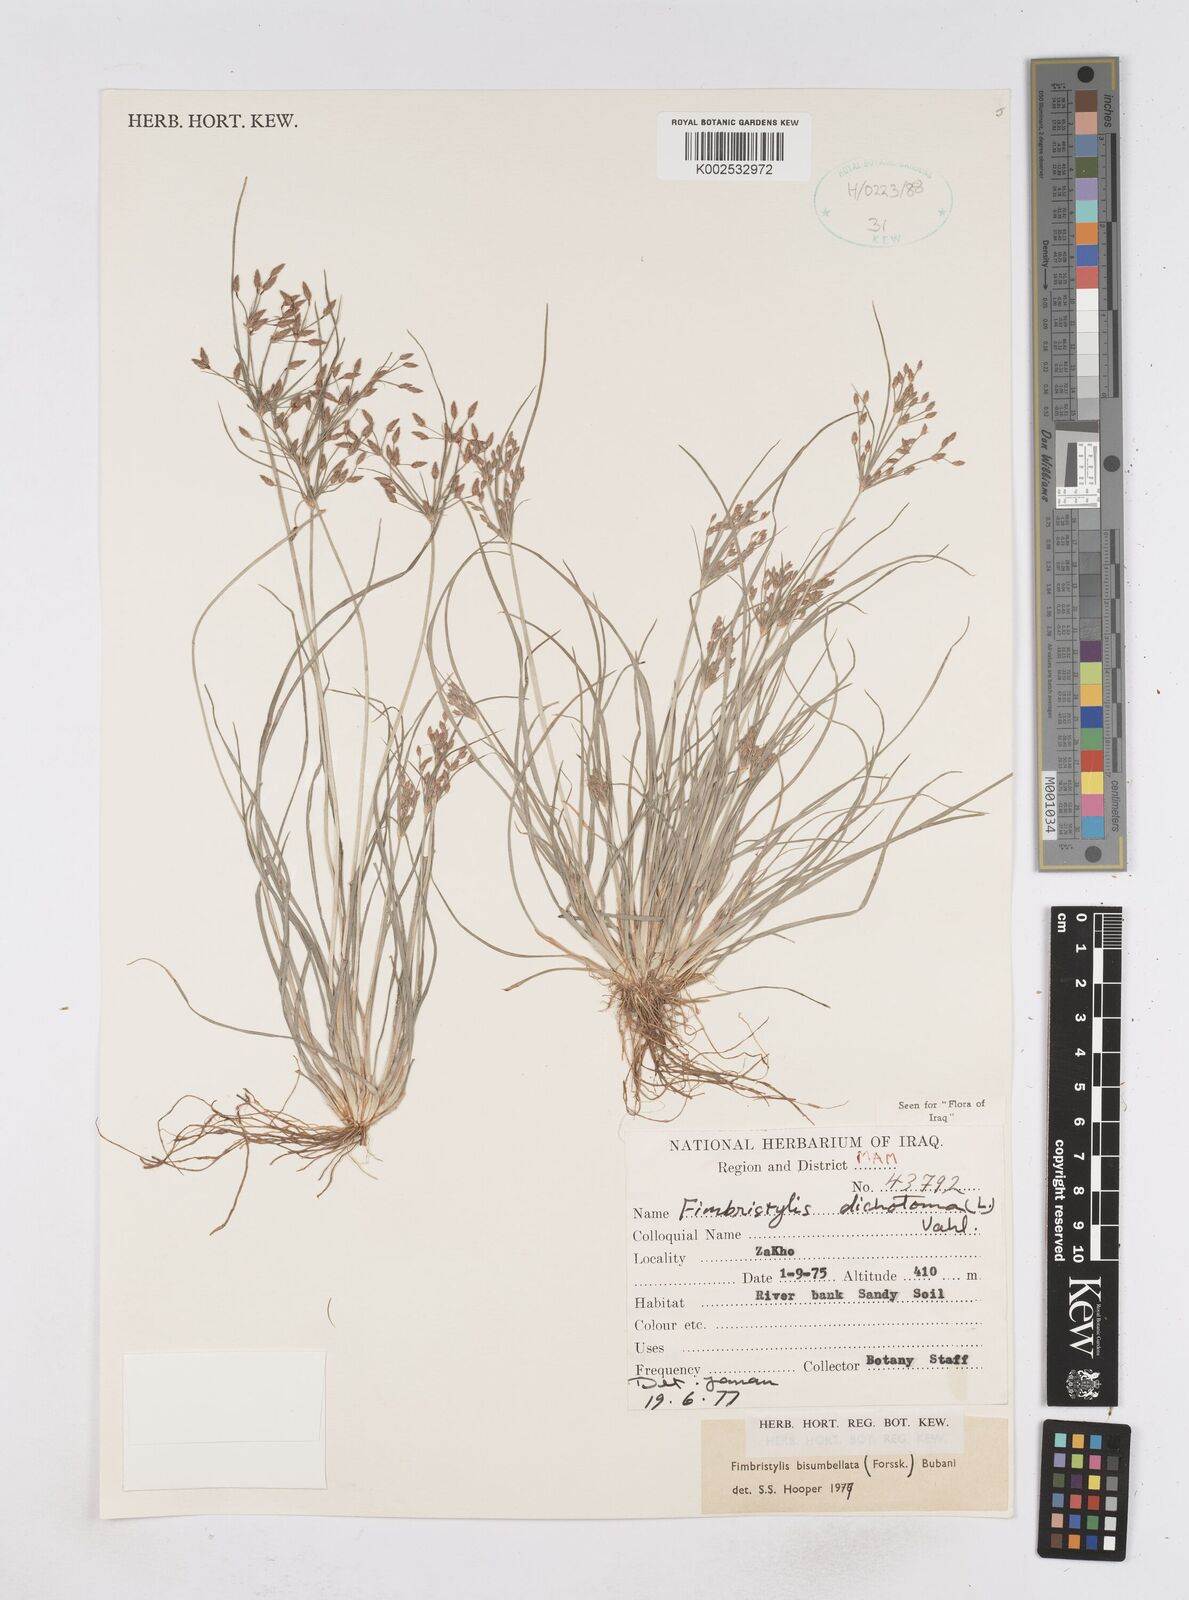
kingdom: Plantae
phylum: Tracheophyta
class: Liliopsida
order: Poales
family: Cyperaceae
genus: Fimbristylis
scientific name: Fimbristylis bisumbellata
